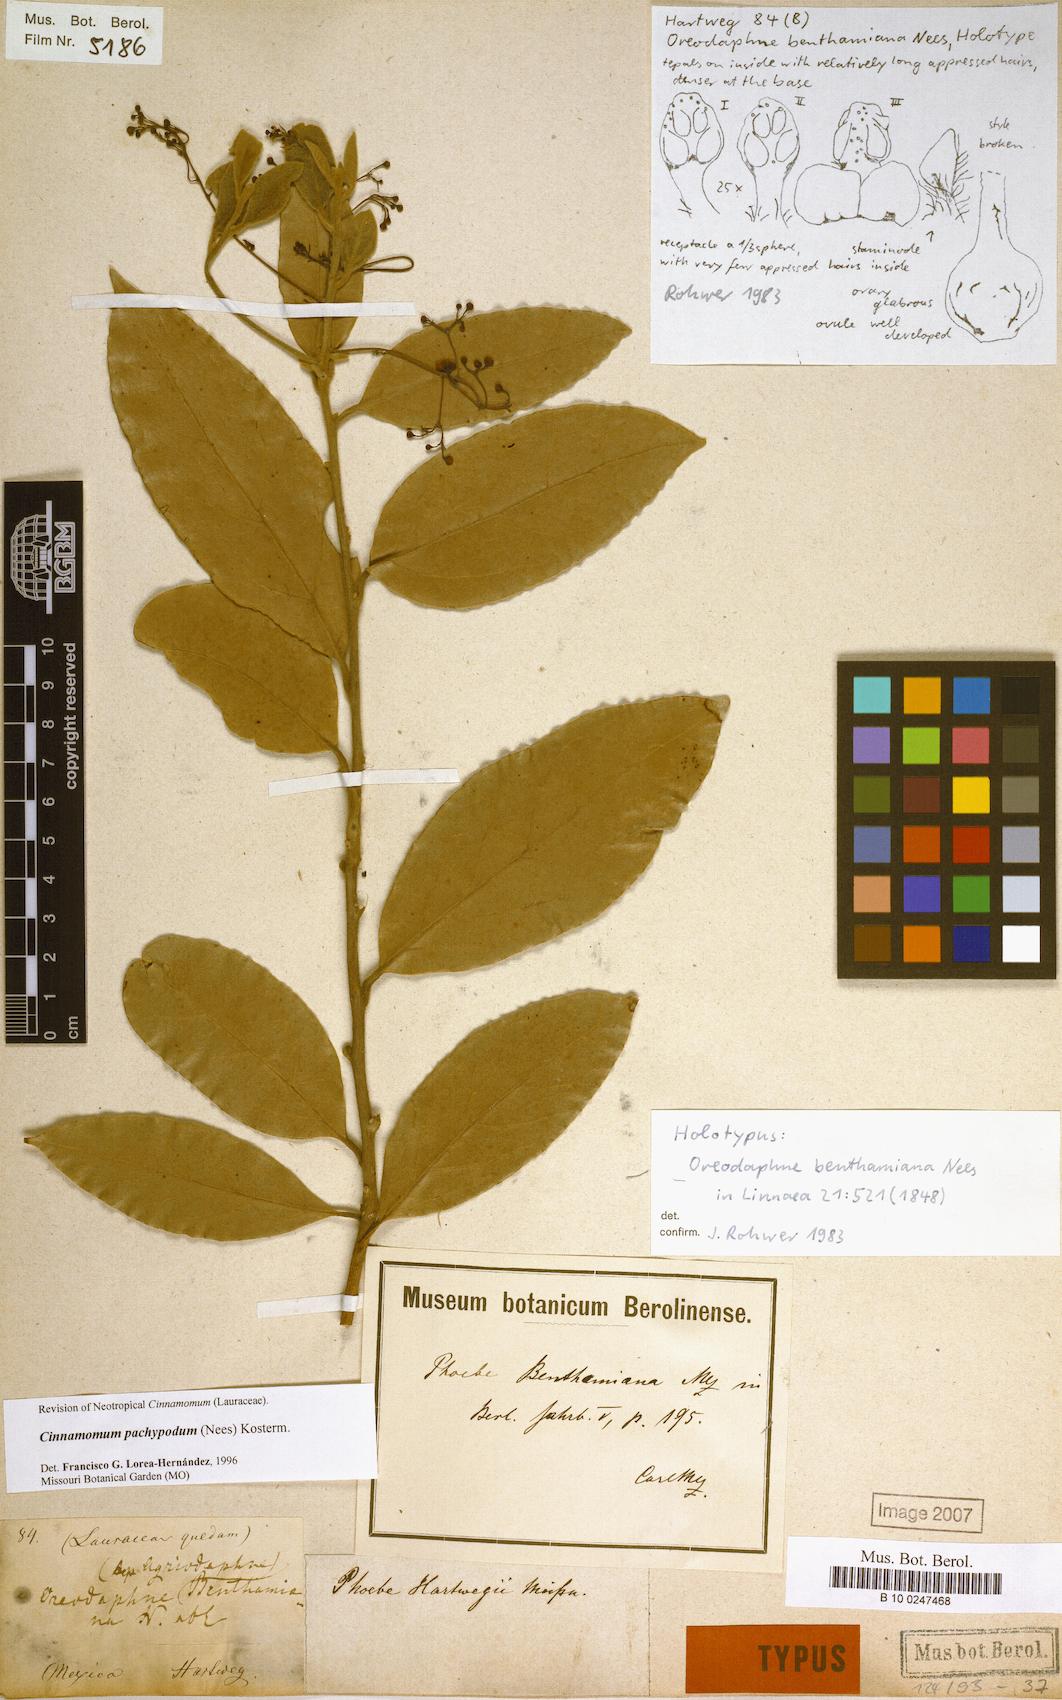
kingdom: Plantae
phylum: Tracheophyta
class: Magnoliopsida
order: Laurales
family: Lauraceae
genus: Aiouea
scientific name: Aiouea pachypoda
